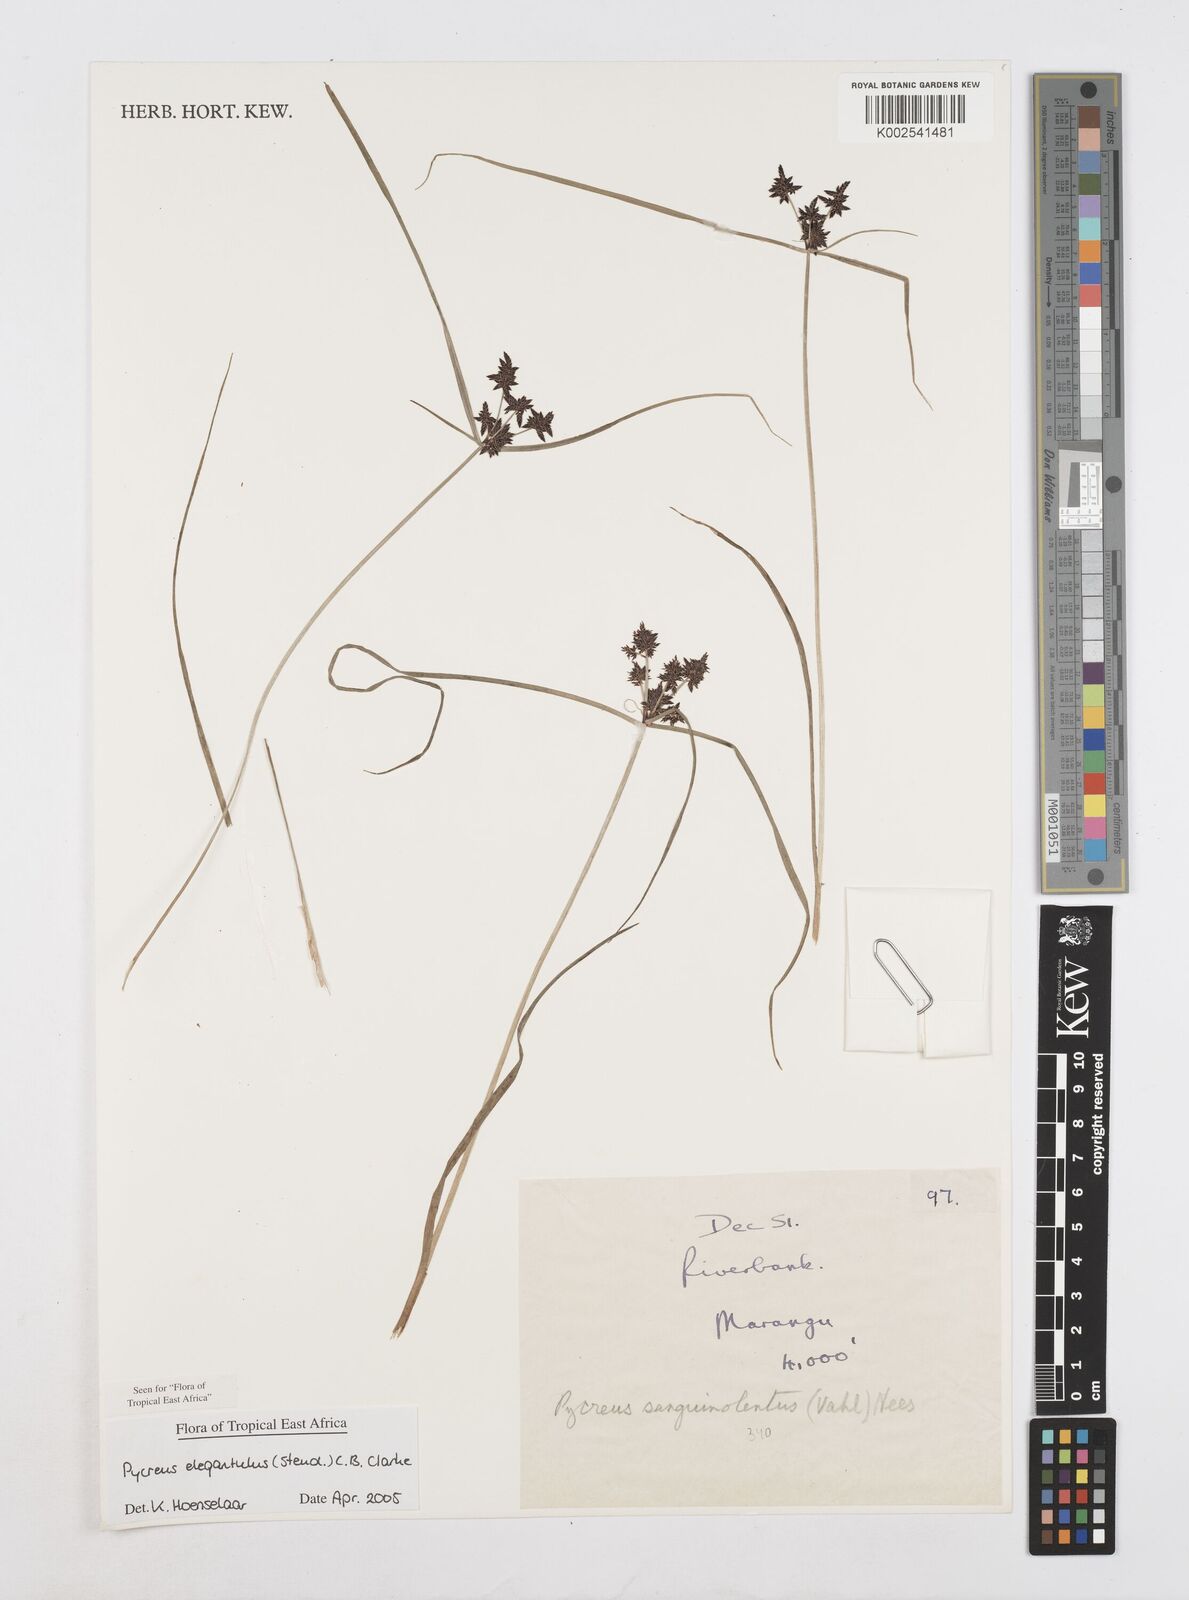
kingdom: Plantae
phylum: Tracheophyta
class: Liliopsida
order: Poales
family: Cyperaceae
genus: Cyperus
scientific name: Cyperus elegantulus
